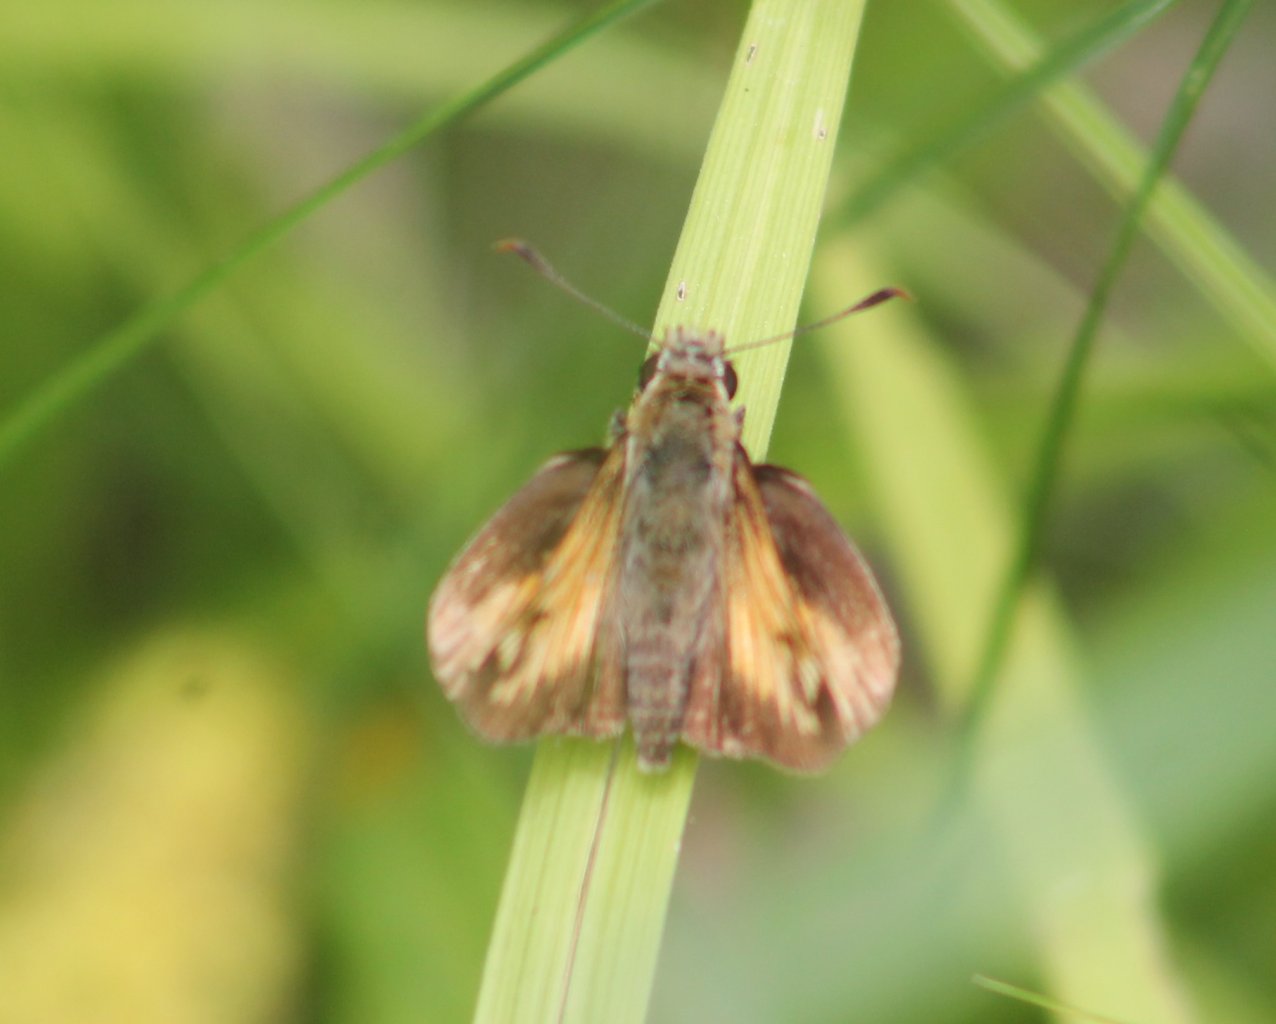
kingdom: Animalia
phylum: Arthropoda
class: Insecta
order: Lepidoptera
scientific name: Lepidoptera
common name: Butterflies
